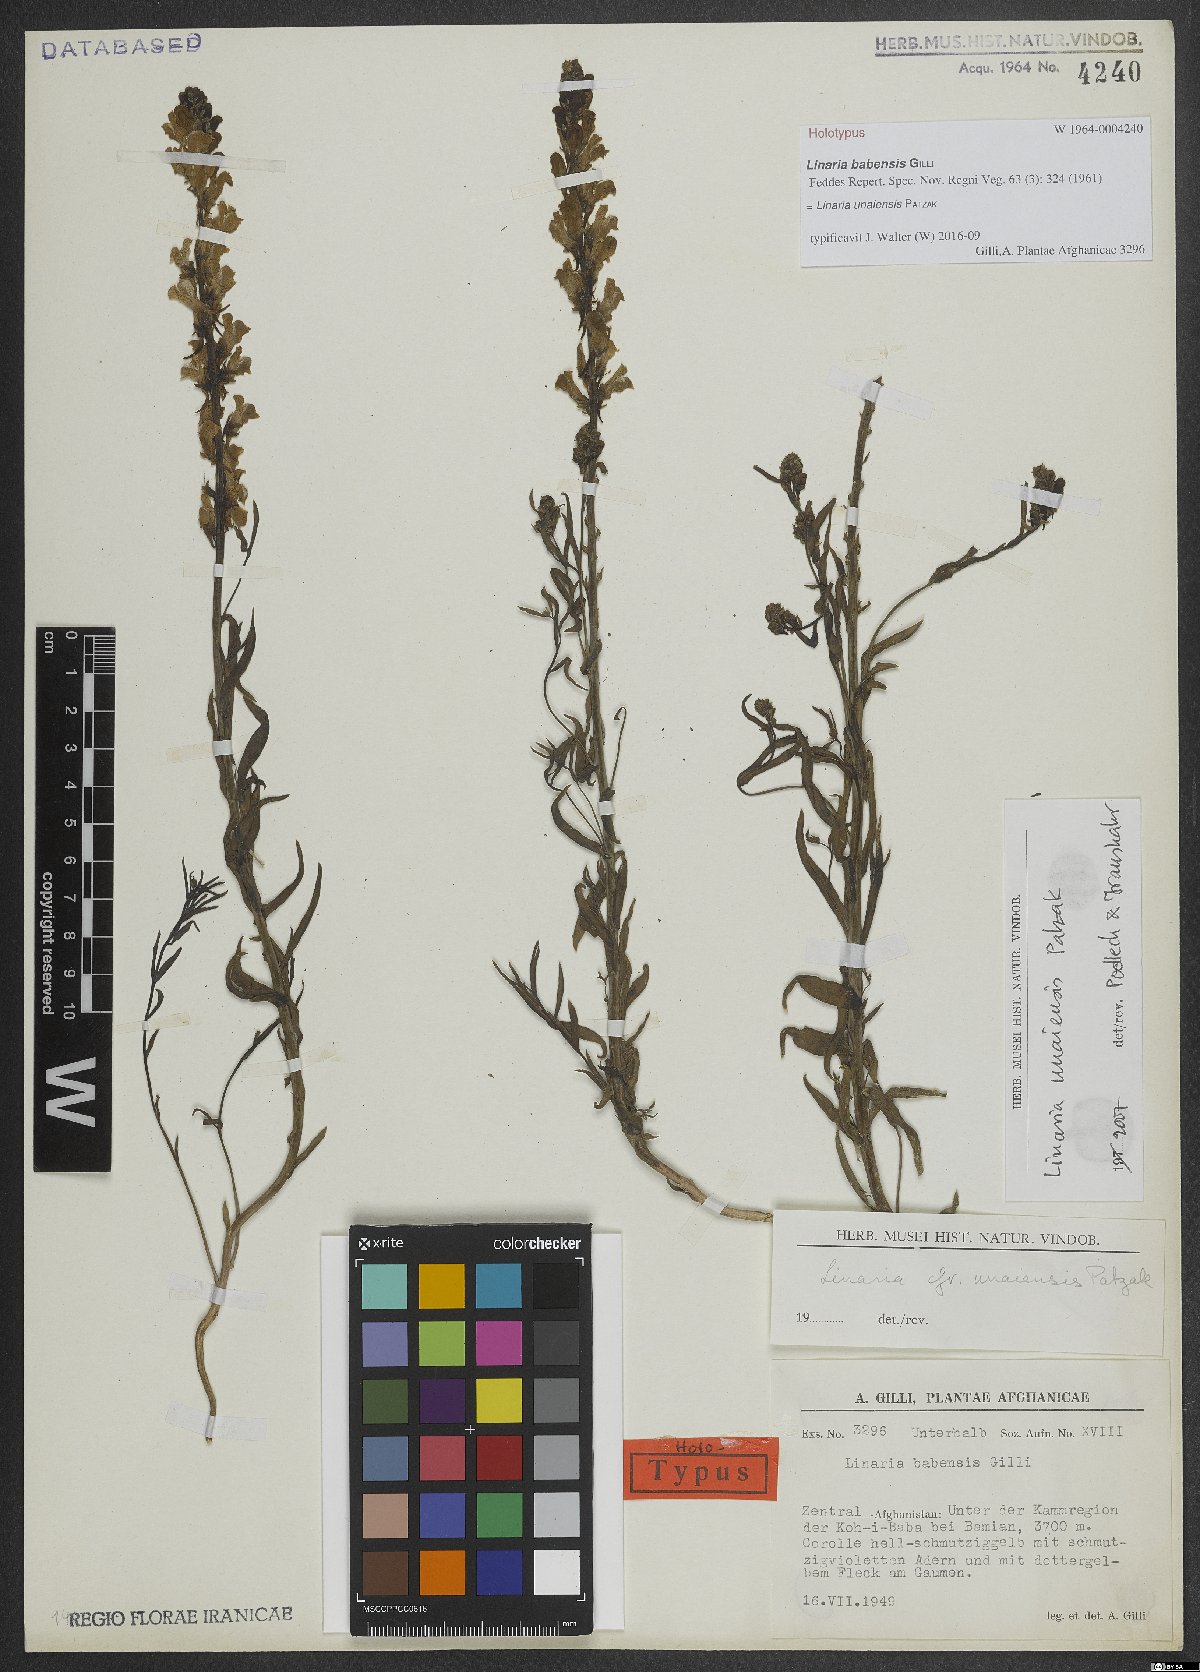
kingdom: Plantae
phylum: Tracheophyta
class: Magnoliopsida
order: Lamiales
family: Plantaginaceae
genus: Linaria
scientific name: Linaria unaiensis
